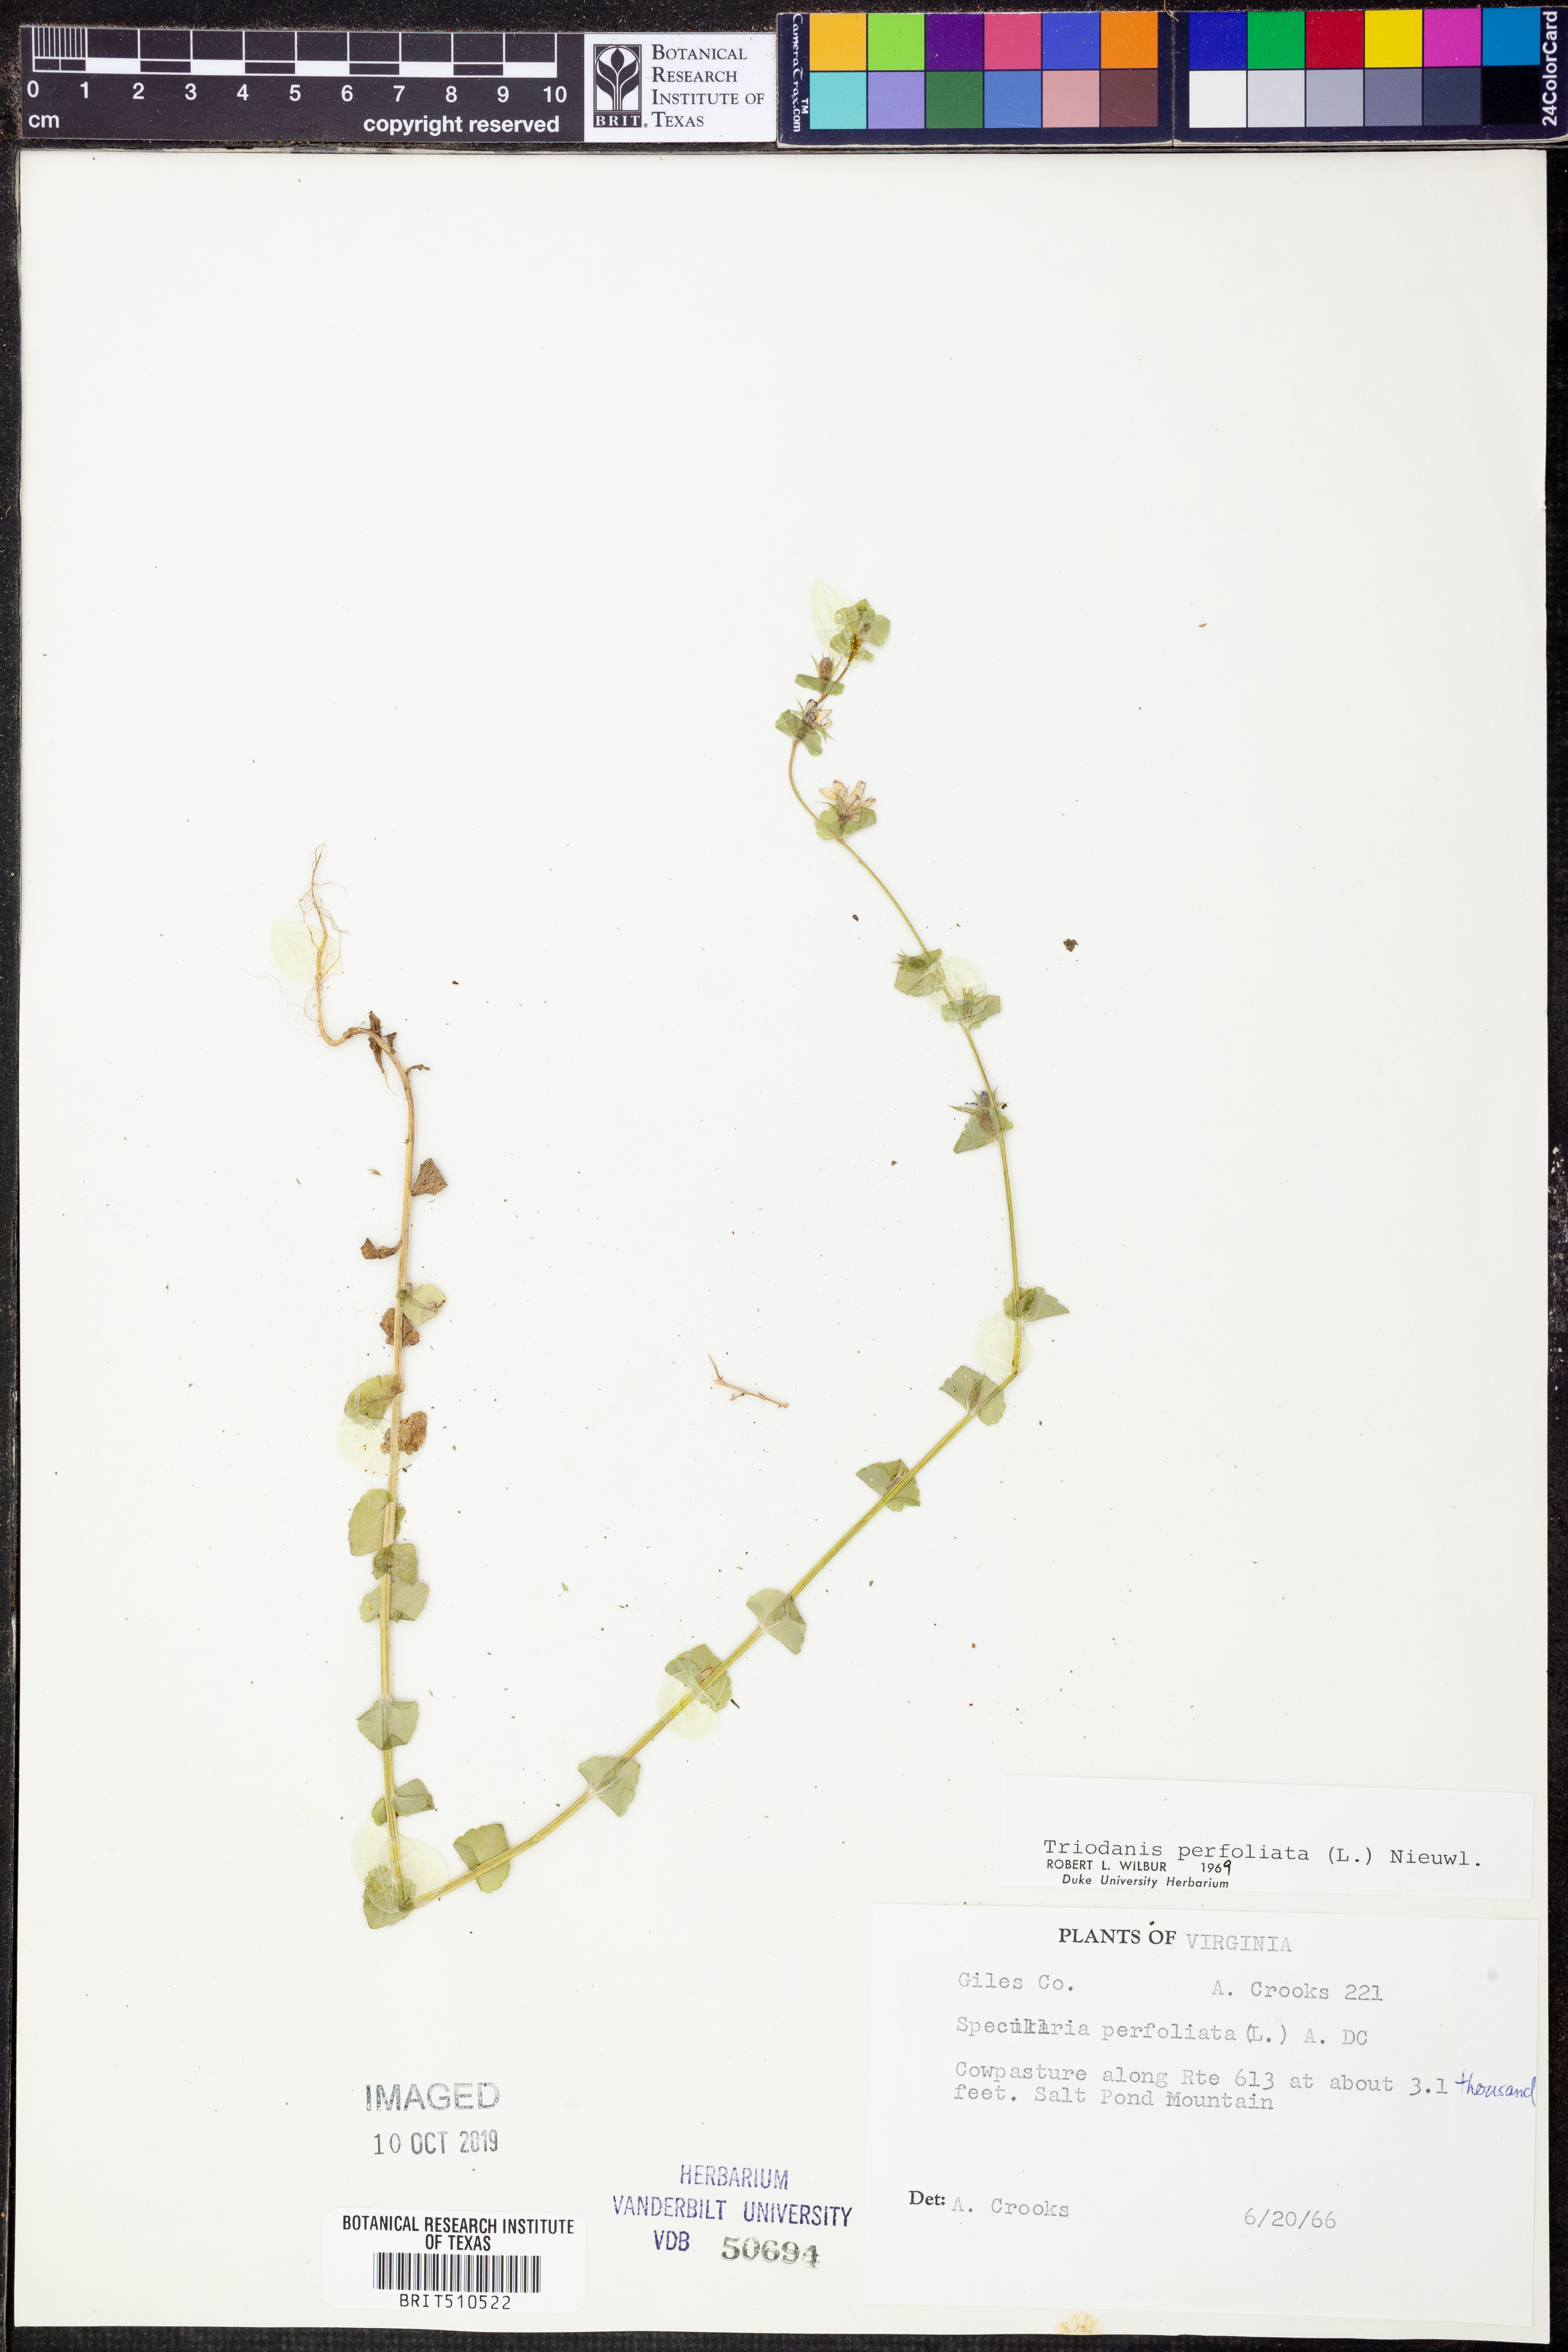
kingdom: Plantae
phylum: Tracheophyta
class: Magnoliopsida
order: Asterales
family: Campanulaceae
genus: Triodanis
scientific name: Triodanis perfoliata
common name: Clasping venus' looking-glass
